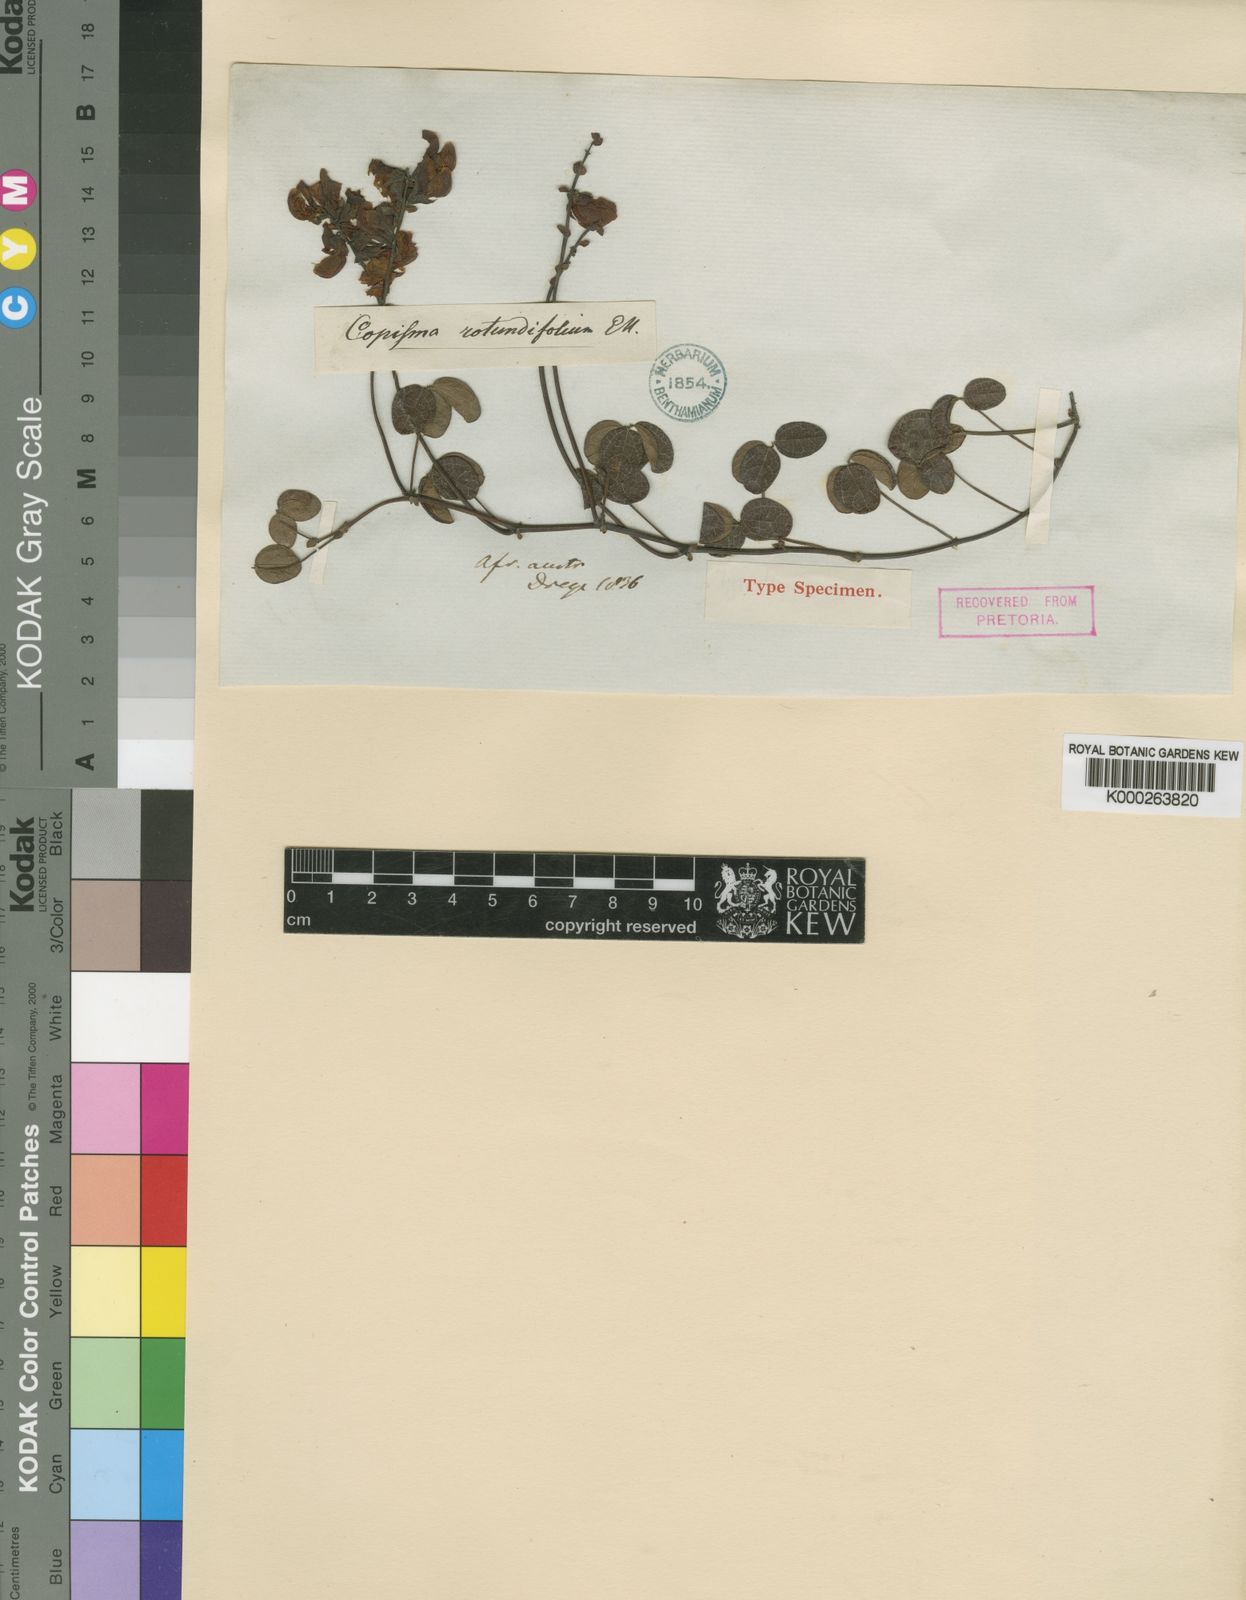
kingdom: Plantae
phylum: Tracheophyta
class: Magnoliopsida
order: Fabales
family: Fabaceae
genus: Rhynchosia
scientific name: Rhynchosia adenodes
